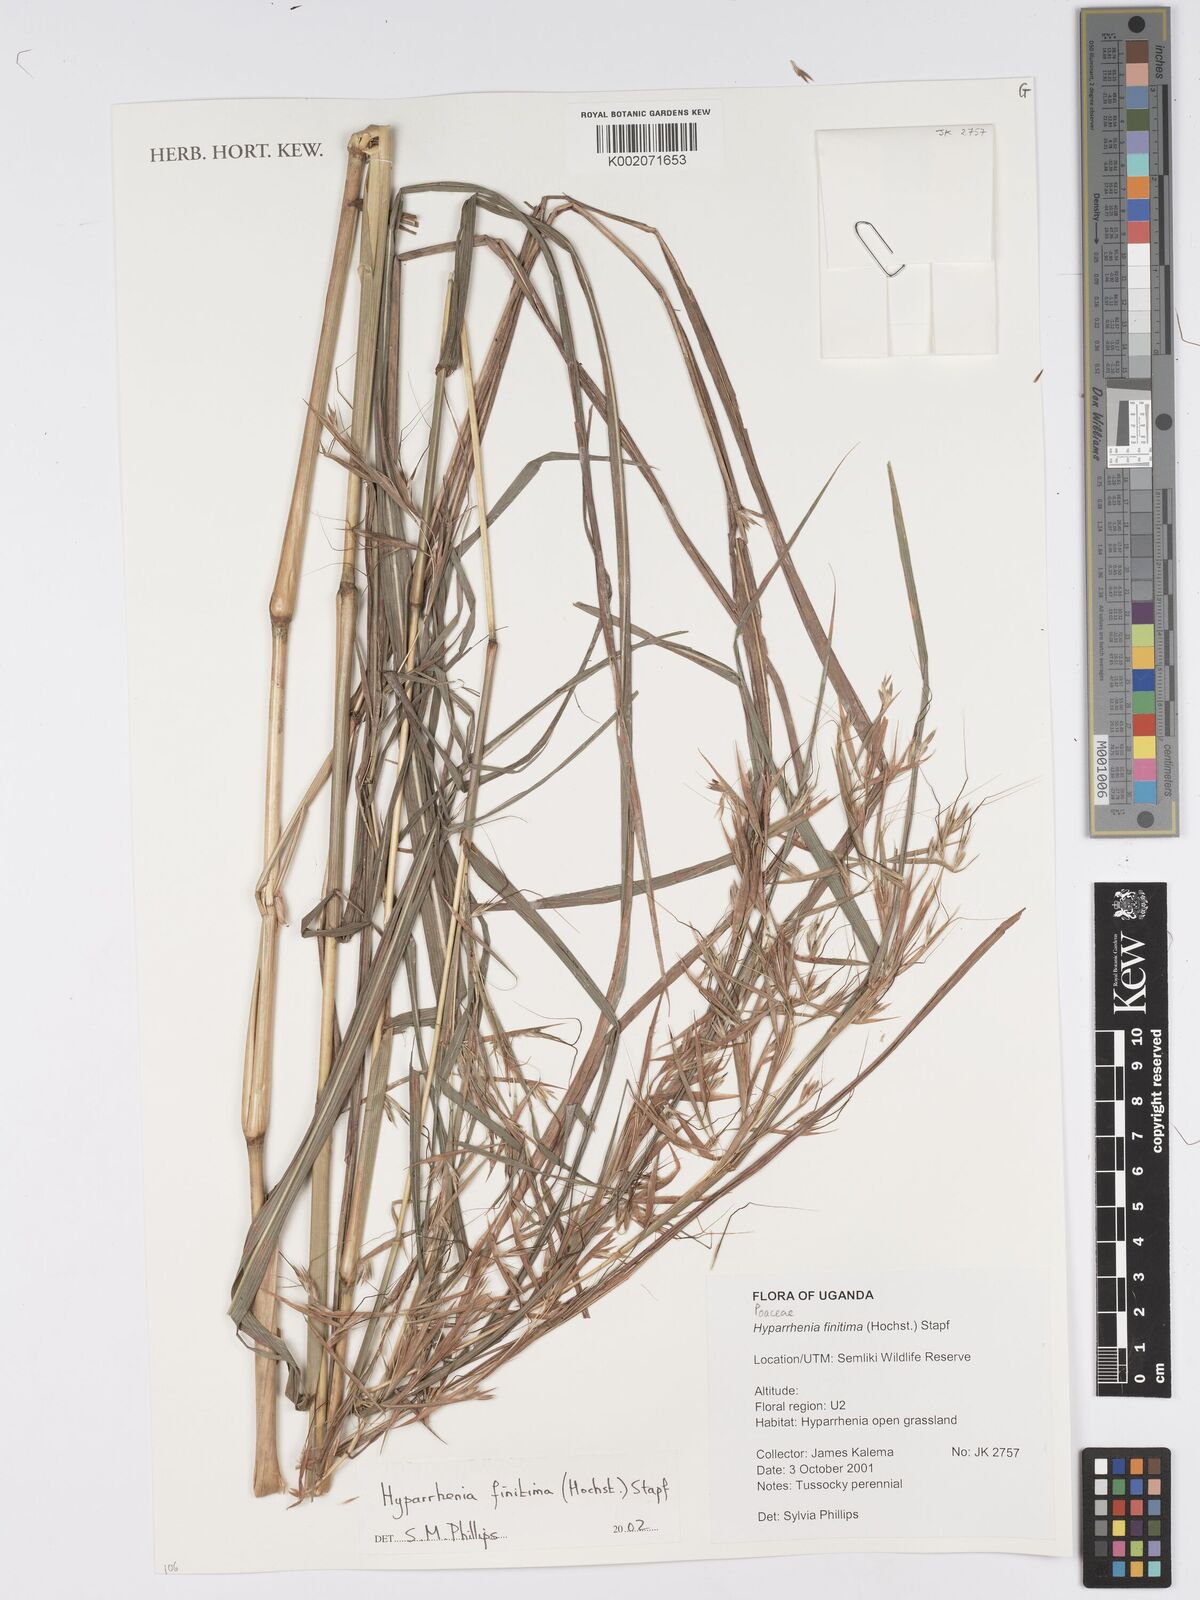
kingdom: Plantae
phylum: Tracheophyta
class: Liliopsida
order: Poales
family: Poaceae
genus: Hyparrhenia
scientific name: Hyparrhenia finitima
